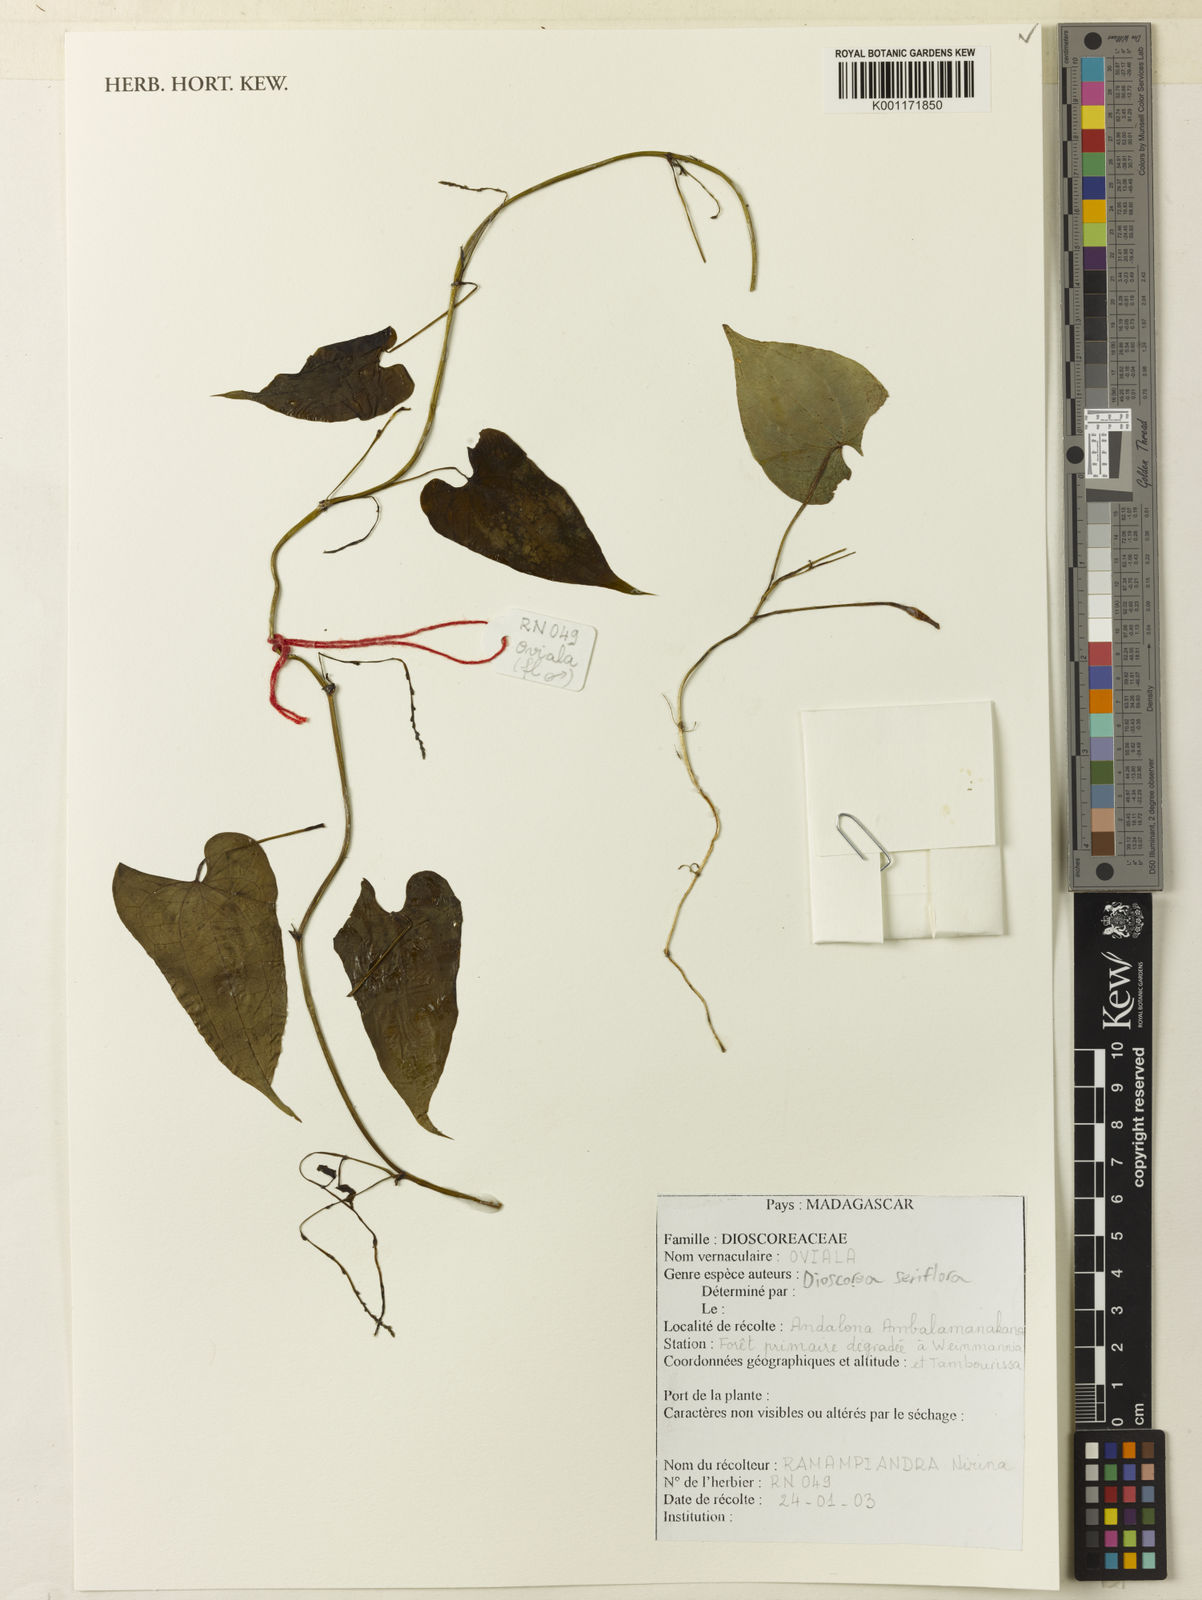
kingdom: Plantae
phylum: Tracheophyta
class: Liliopsida
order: Dioscoreales
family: Dioscoreaceae
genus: Dioscorea
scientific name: Dioscorea seriflora
